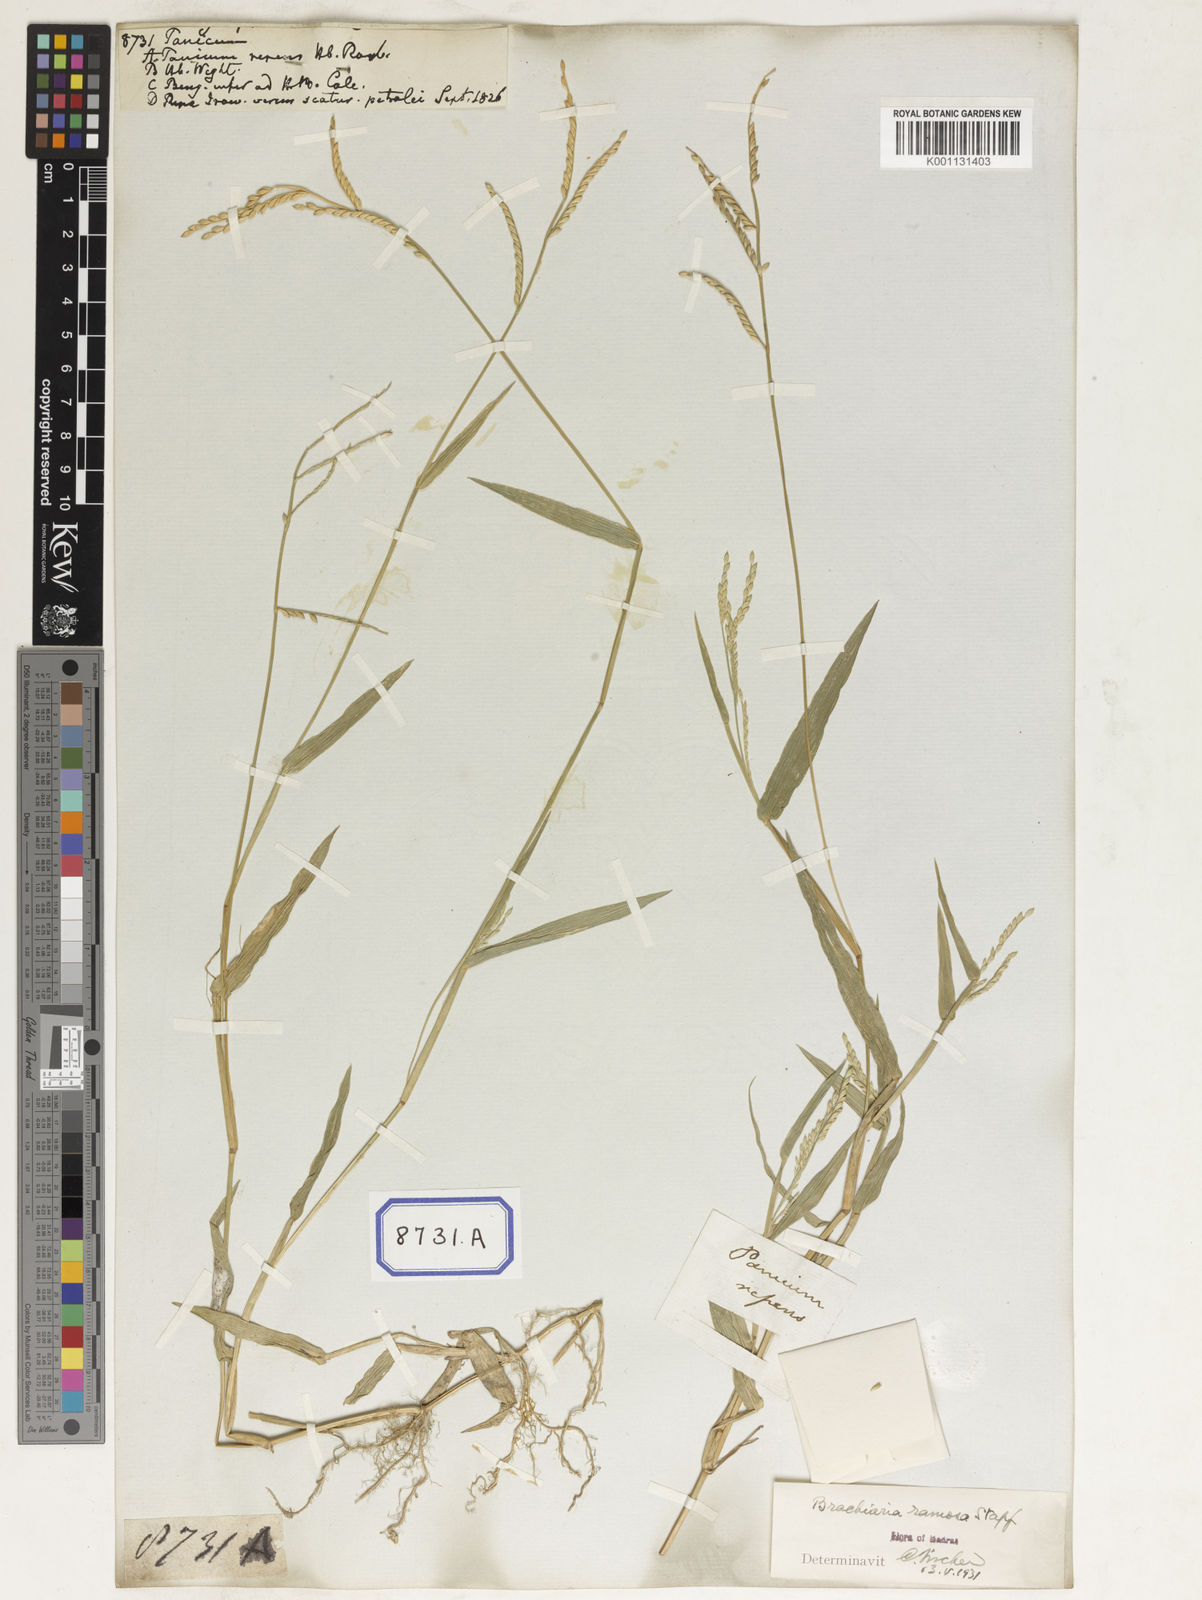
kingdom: Plantae
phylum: Tracheophyta
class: Liliopsida
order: Poales
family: Poaceae
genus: Panicum
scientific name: Panicum
